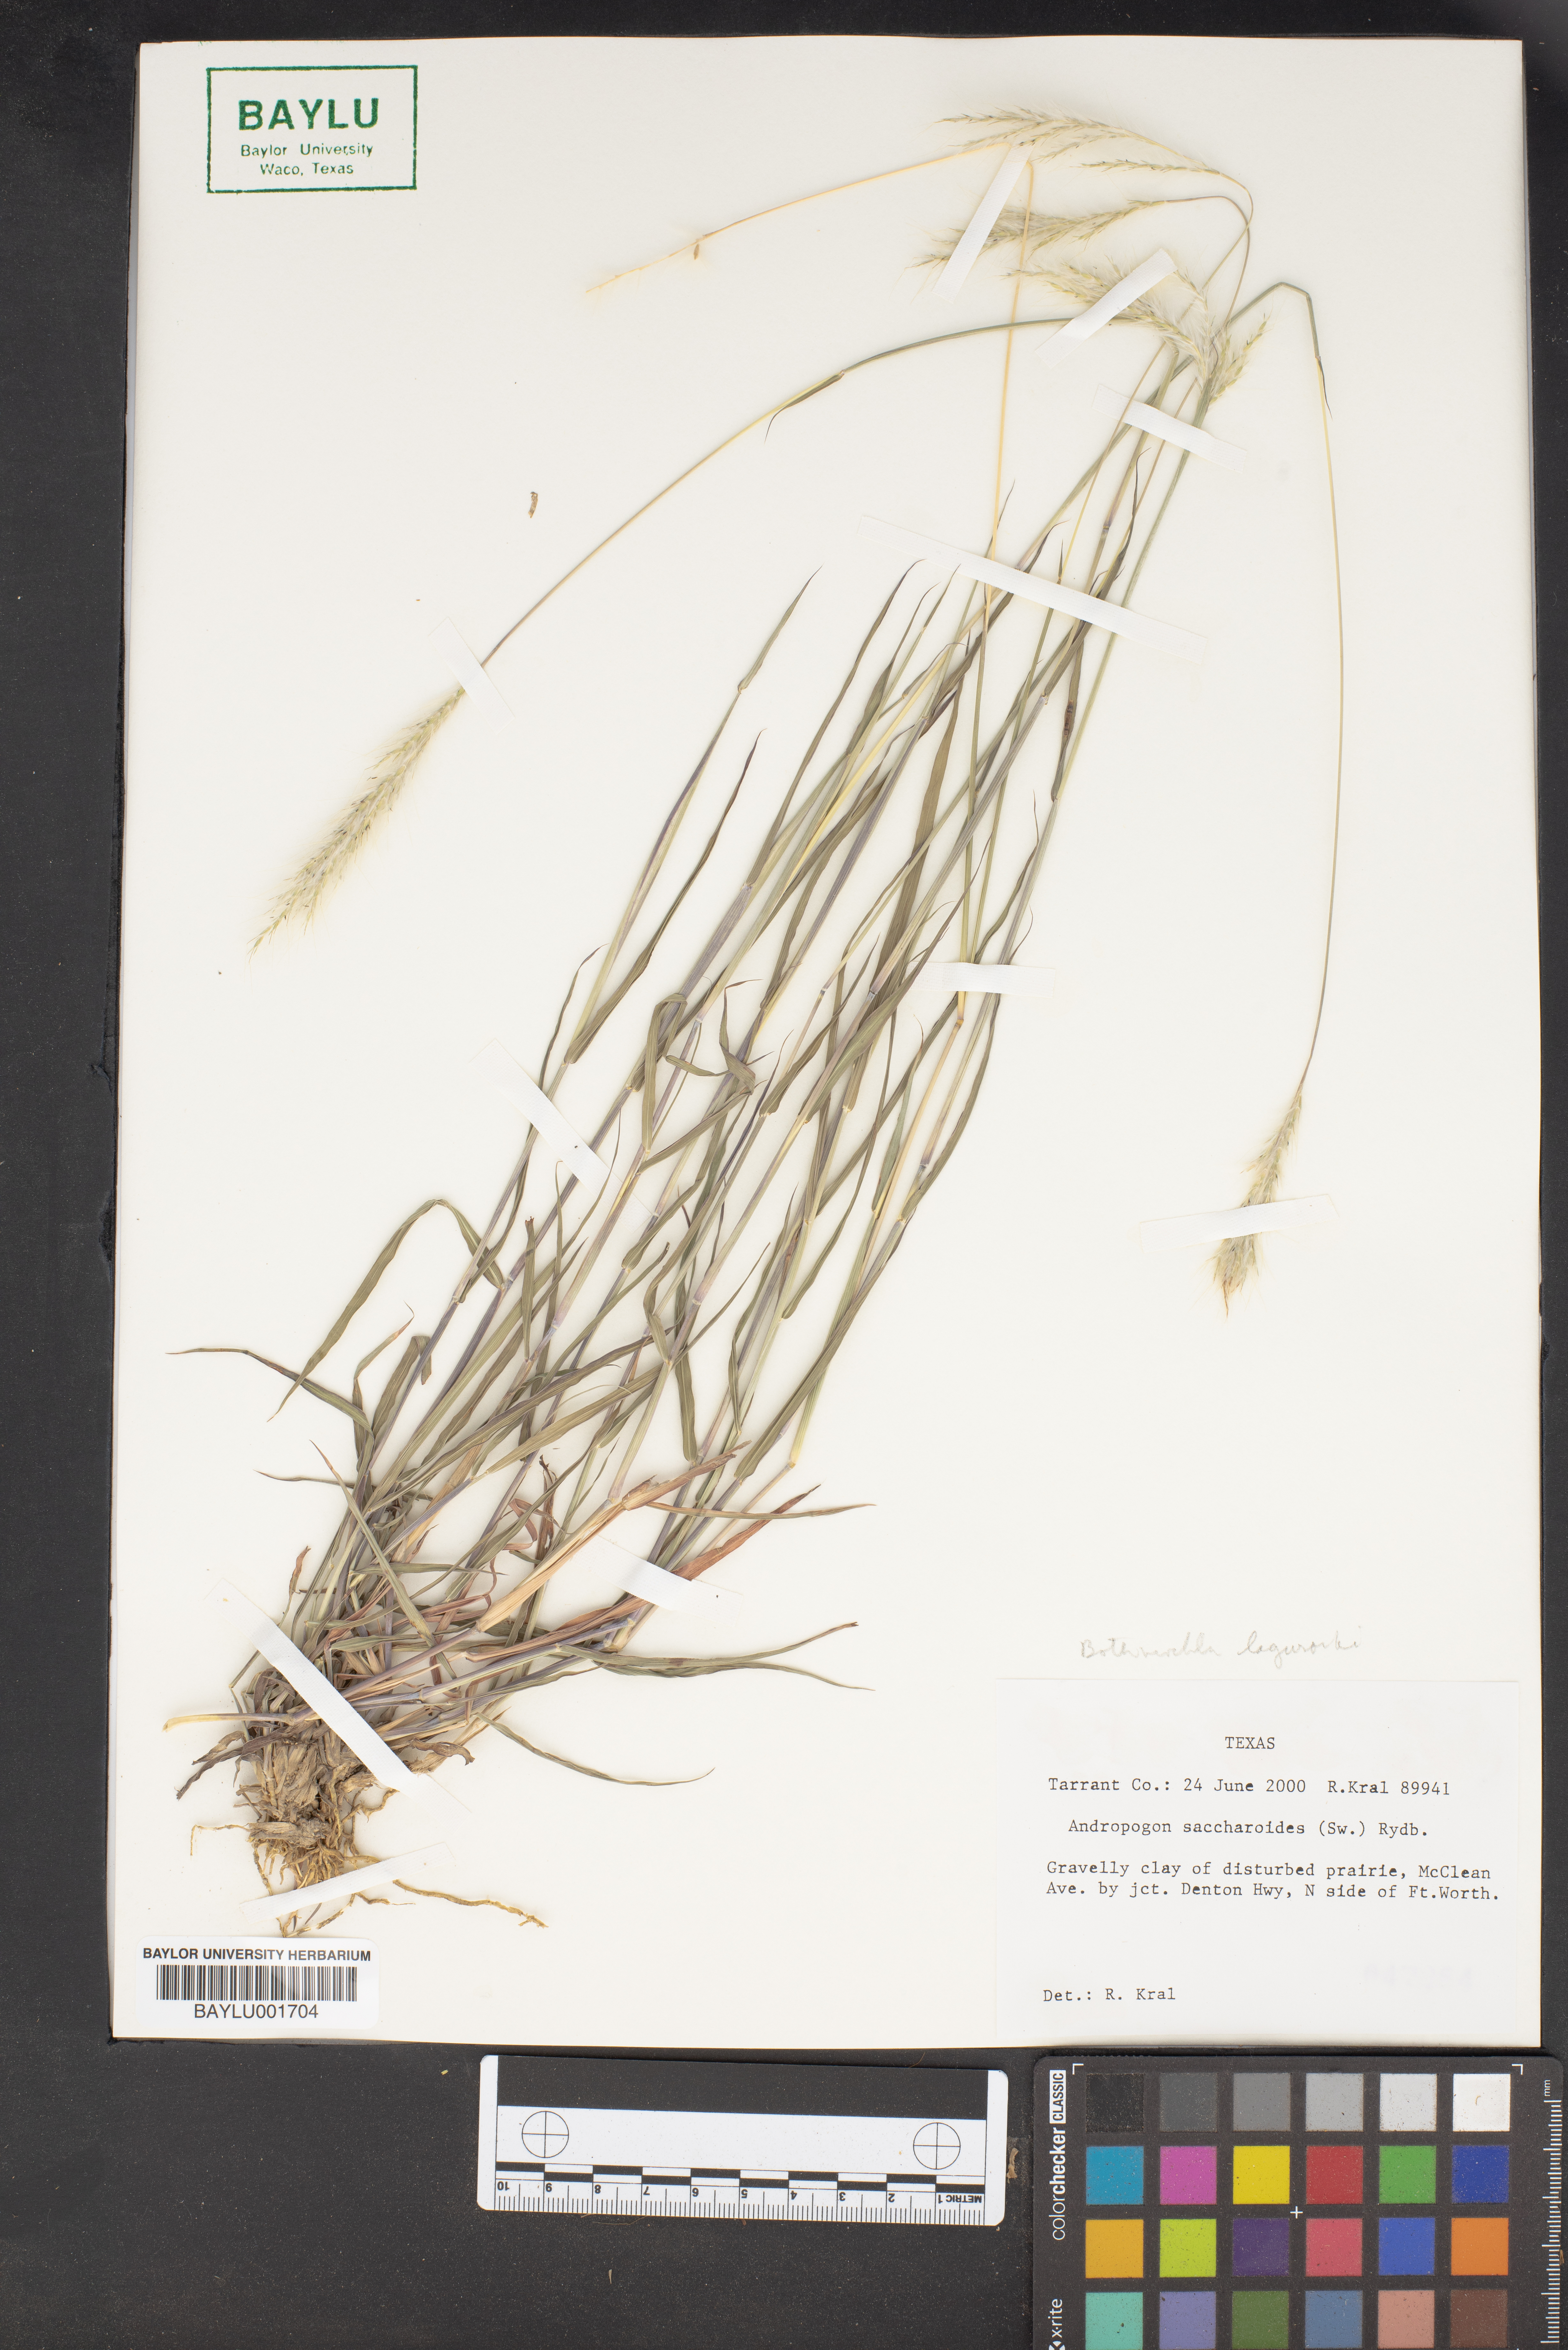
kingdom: Plantae
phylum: Tracheophyta
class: Liliopsida
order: Poales
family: Poaceae
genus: Bothriochloa
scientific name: Bothriochloa saccharoides
